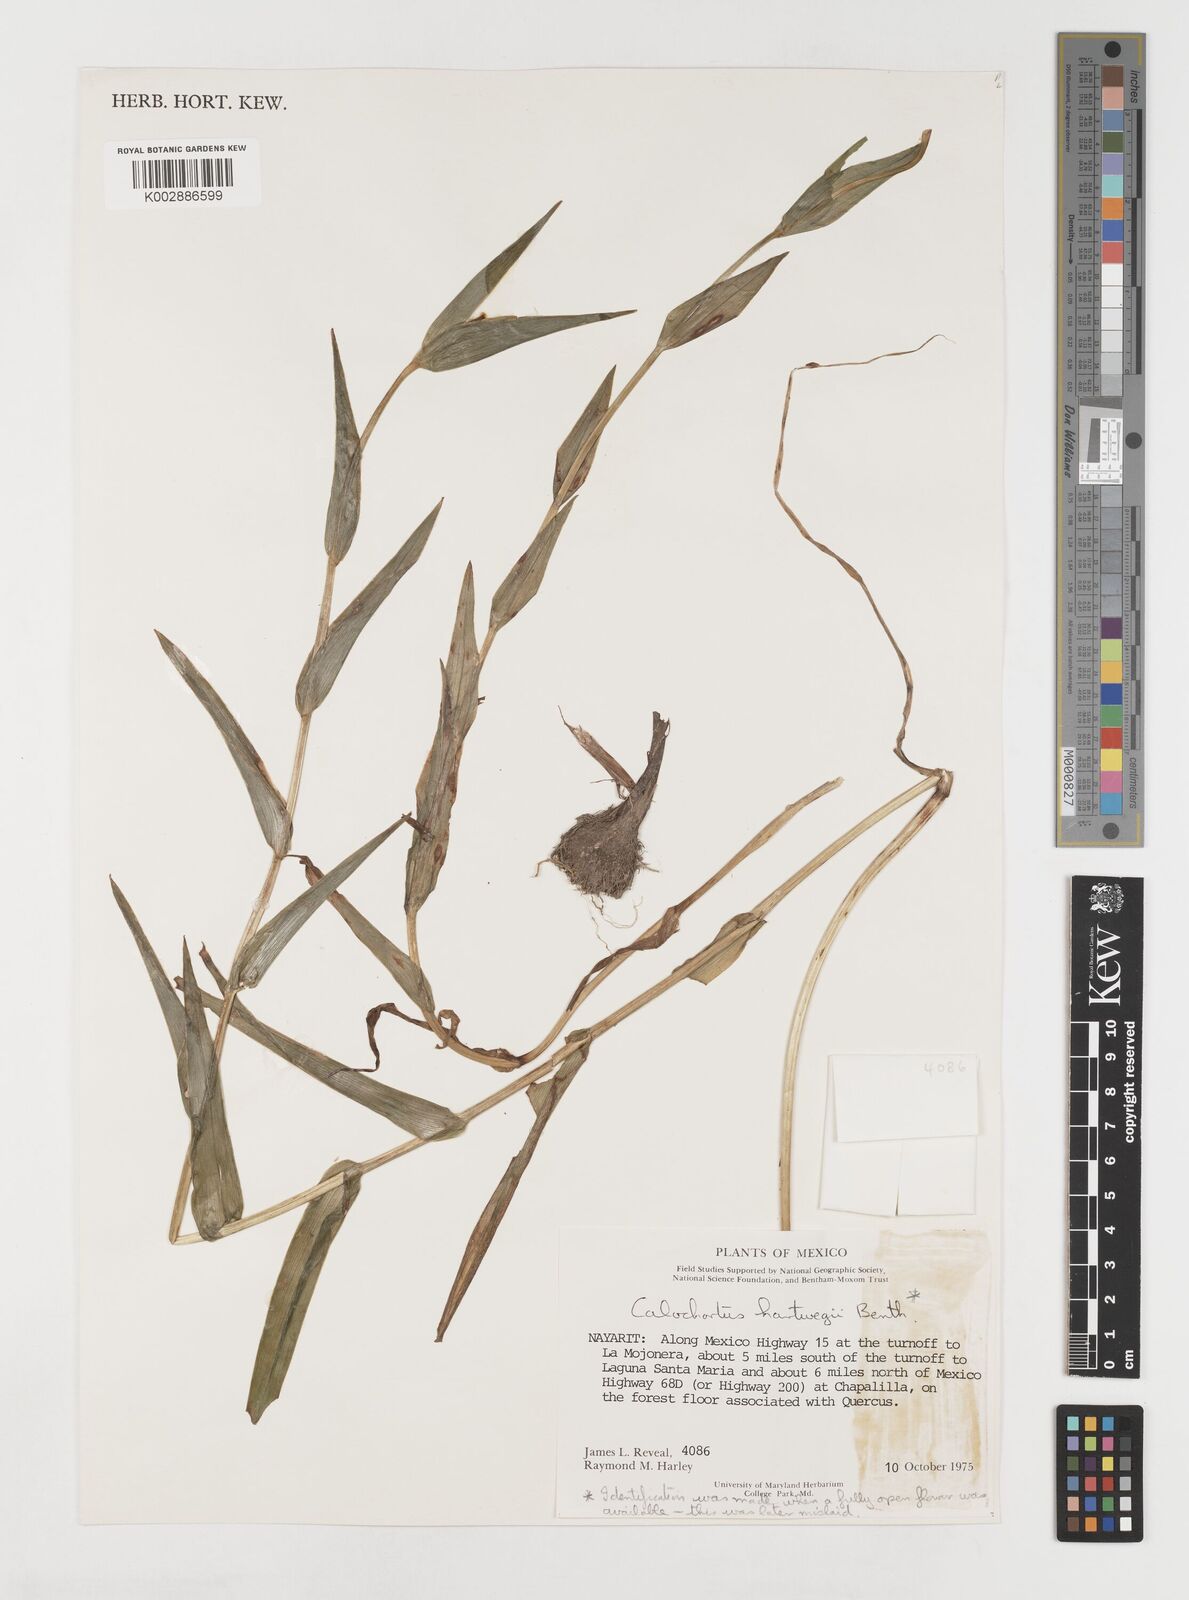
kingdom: Plantae
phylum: Tracheophyta
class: Liliopsida
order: Liliales
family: Liliaceae
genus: Calochortus
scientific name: Calochortus hartwegii
